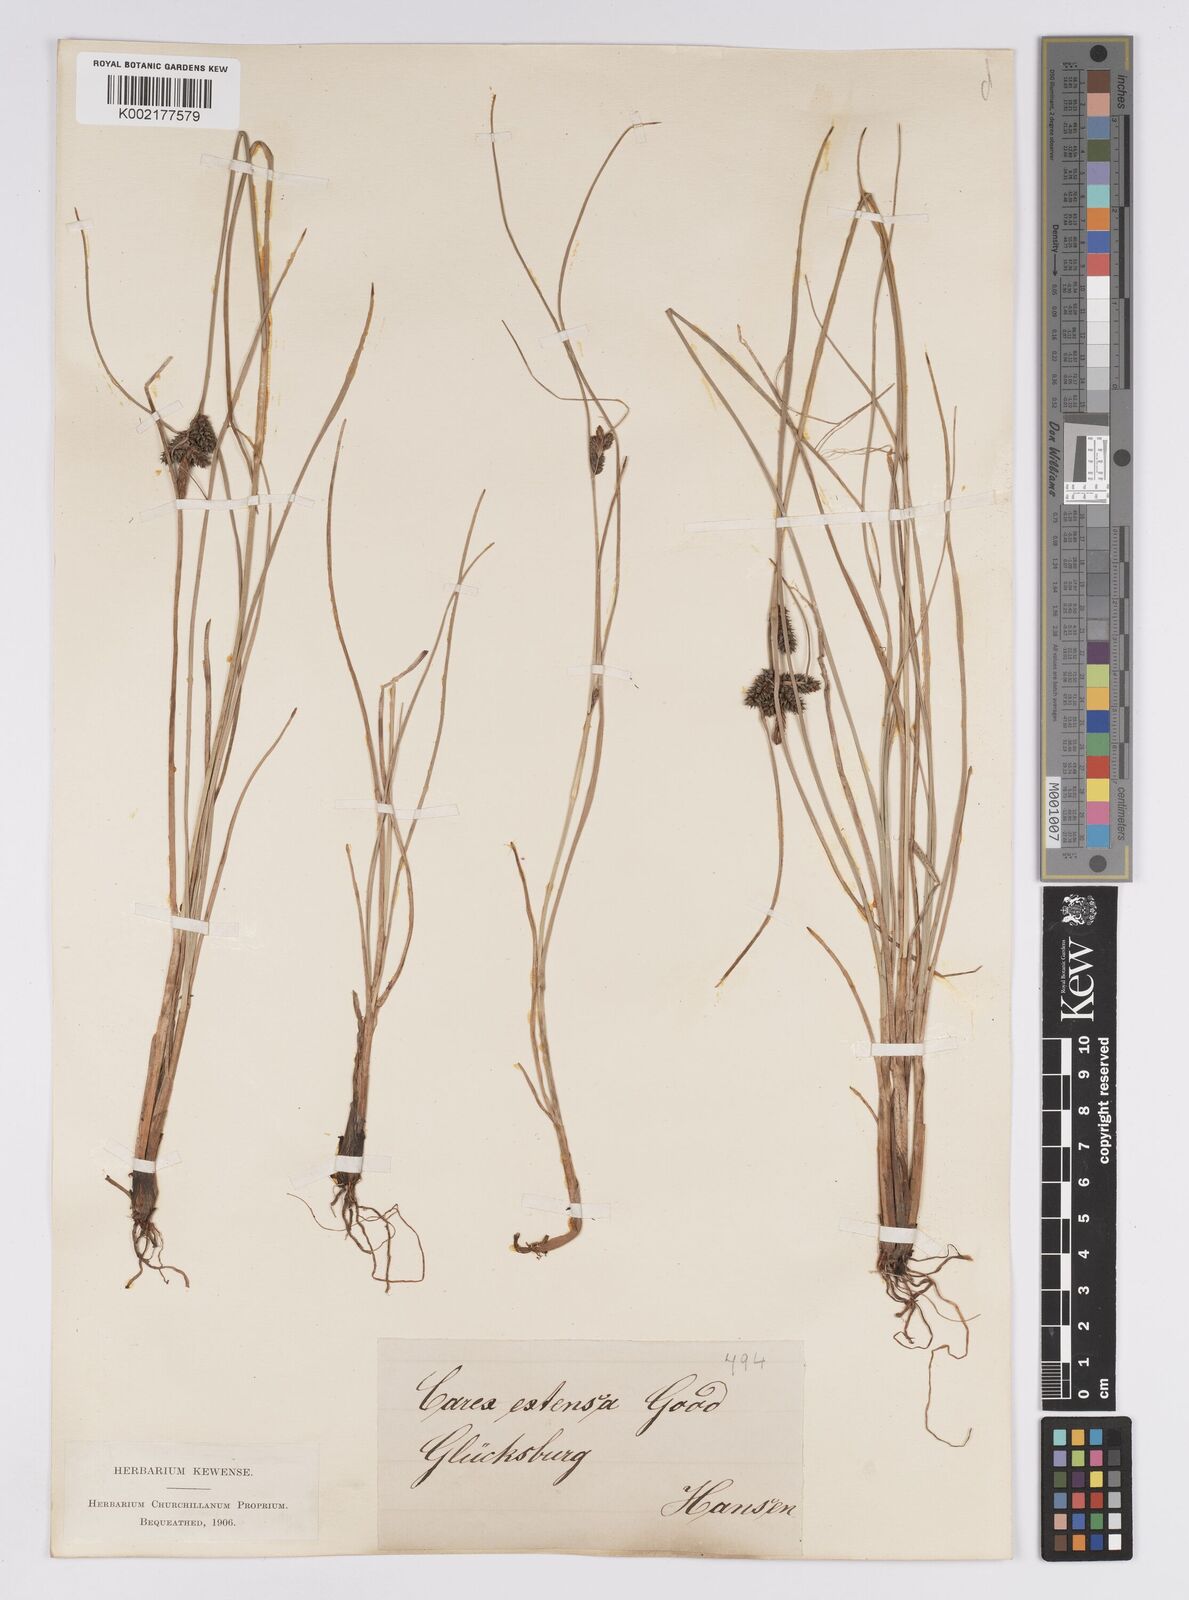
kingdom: Plantae
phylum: Tracheophyta
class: Liliopsida
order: Poales
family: Cyperaceae
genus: Carex
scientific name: Carex extensa
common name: Long-bracted sedge
